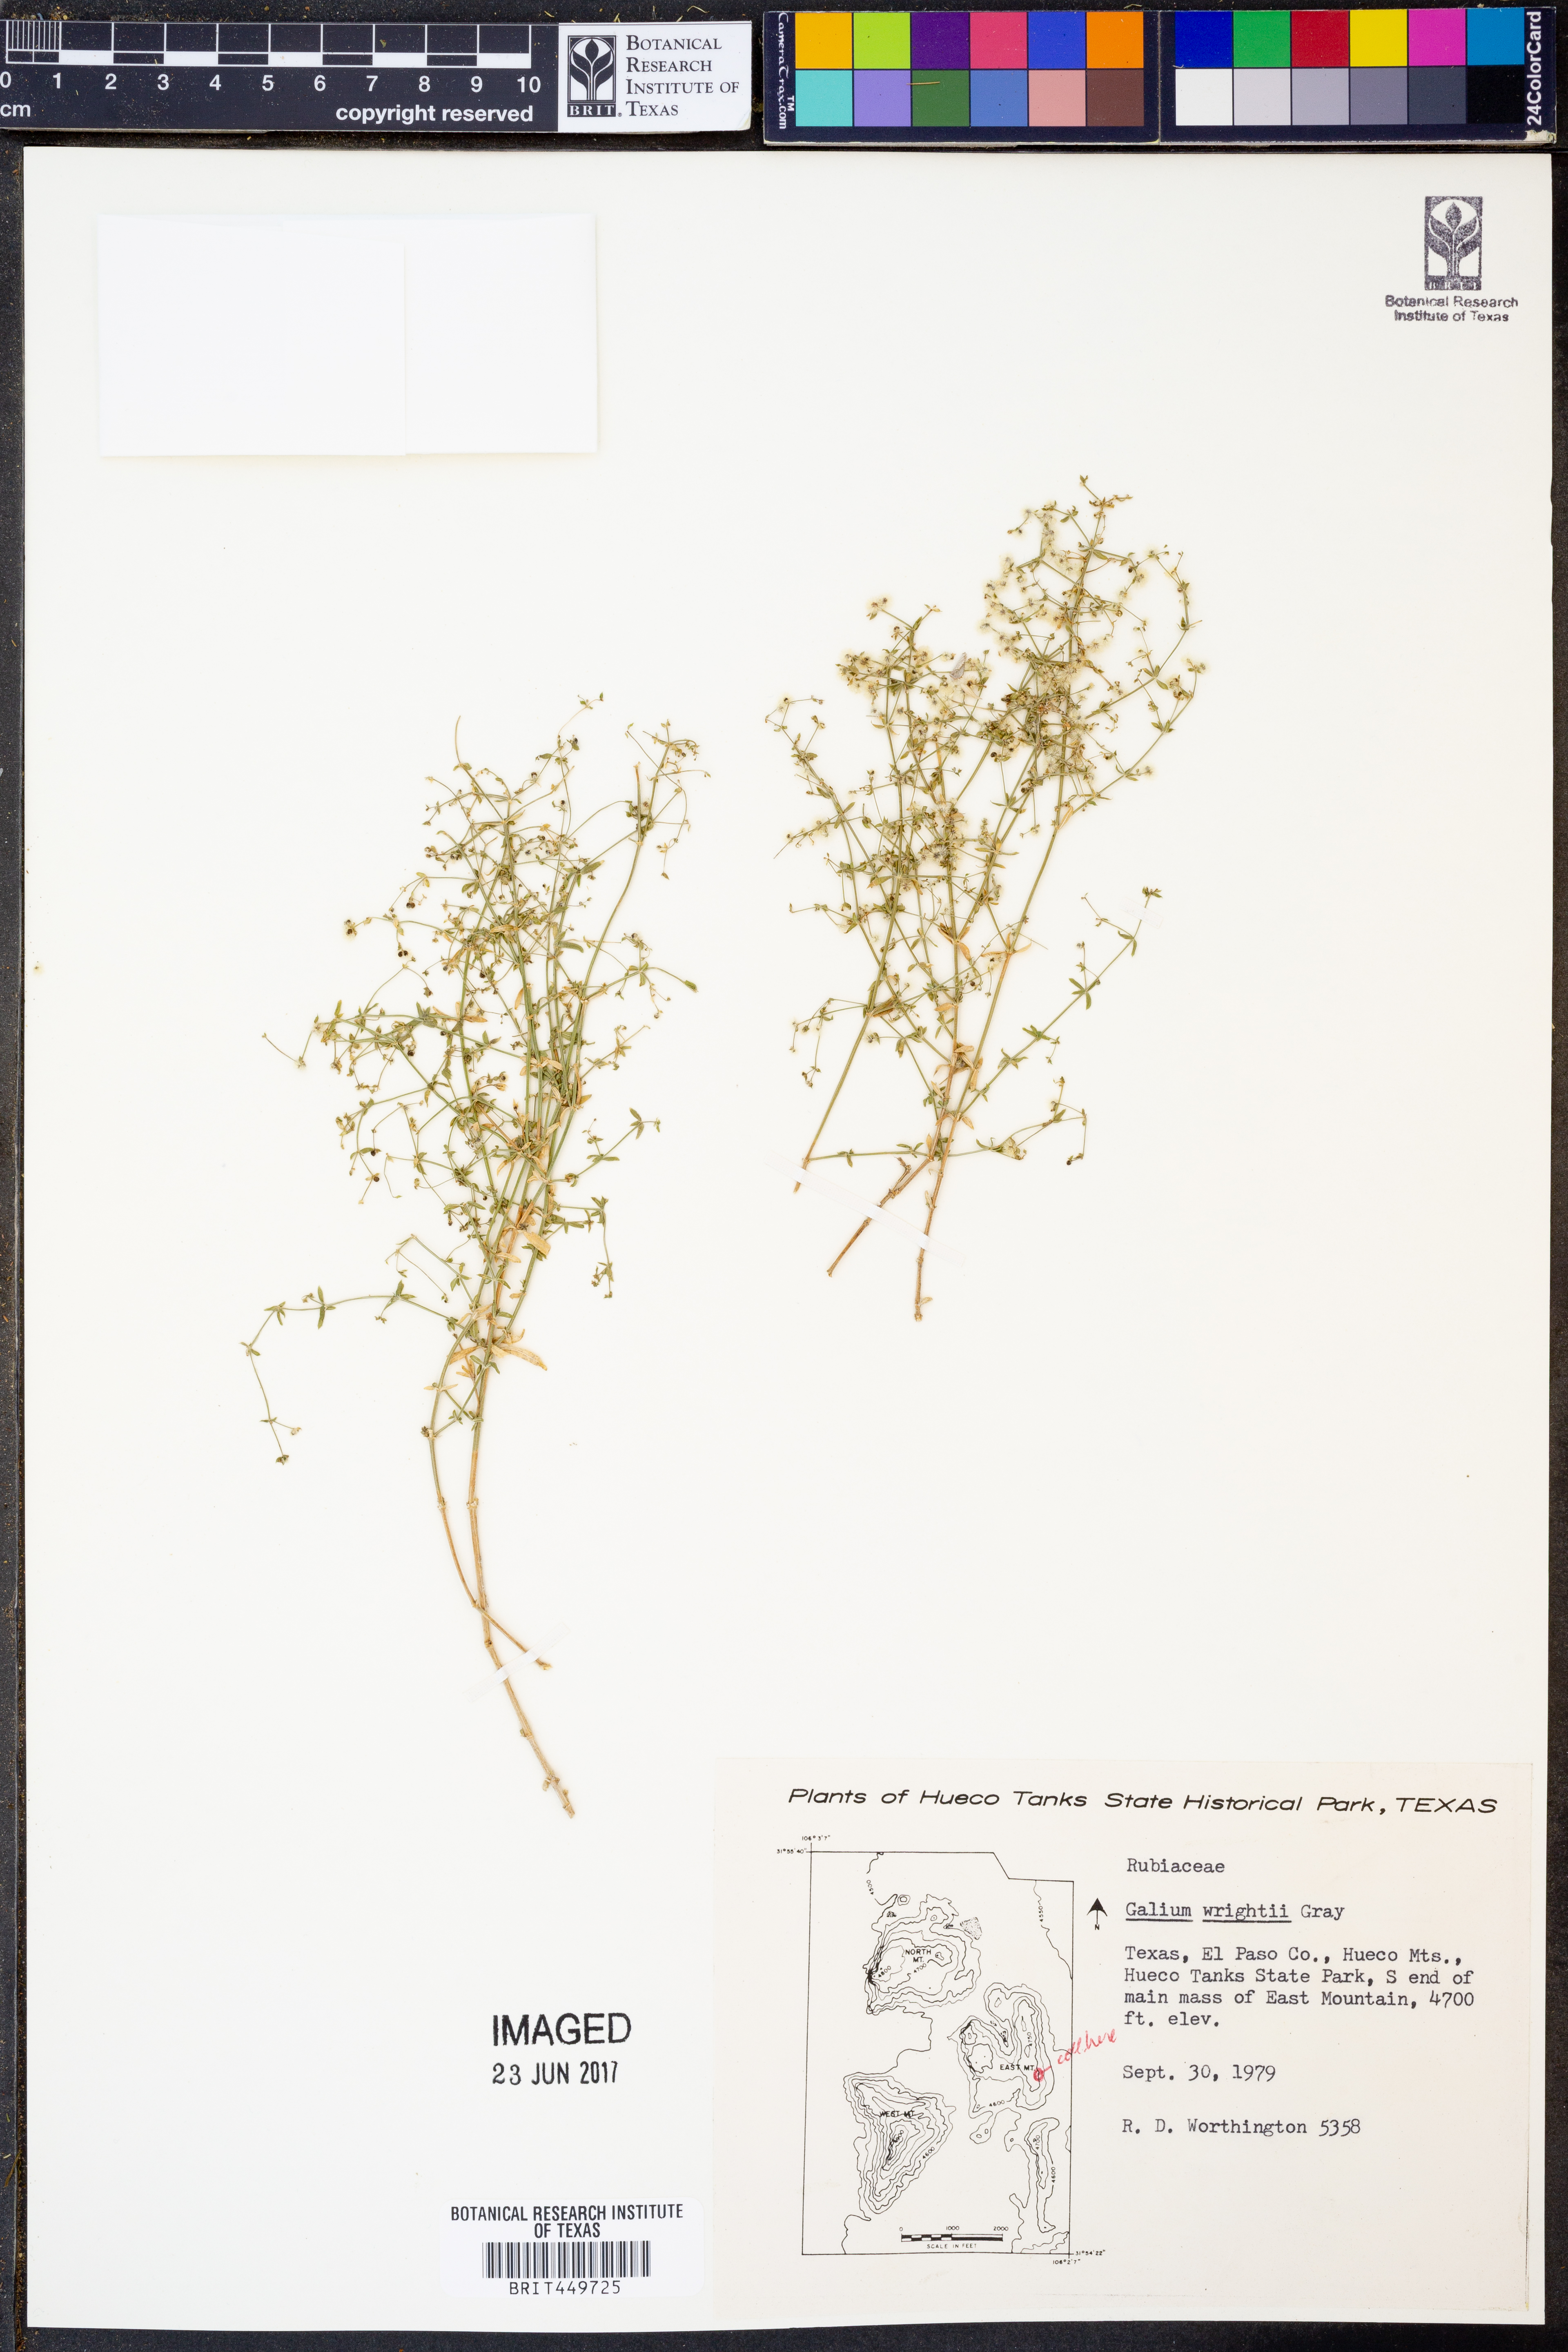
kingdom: Plantae
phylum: Tracheophyta
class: Magnoliopsida
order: Gentianales
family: Rubiaceae
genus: Galium
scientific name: Galium wrightii
